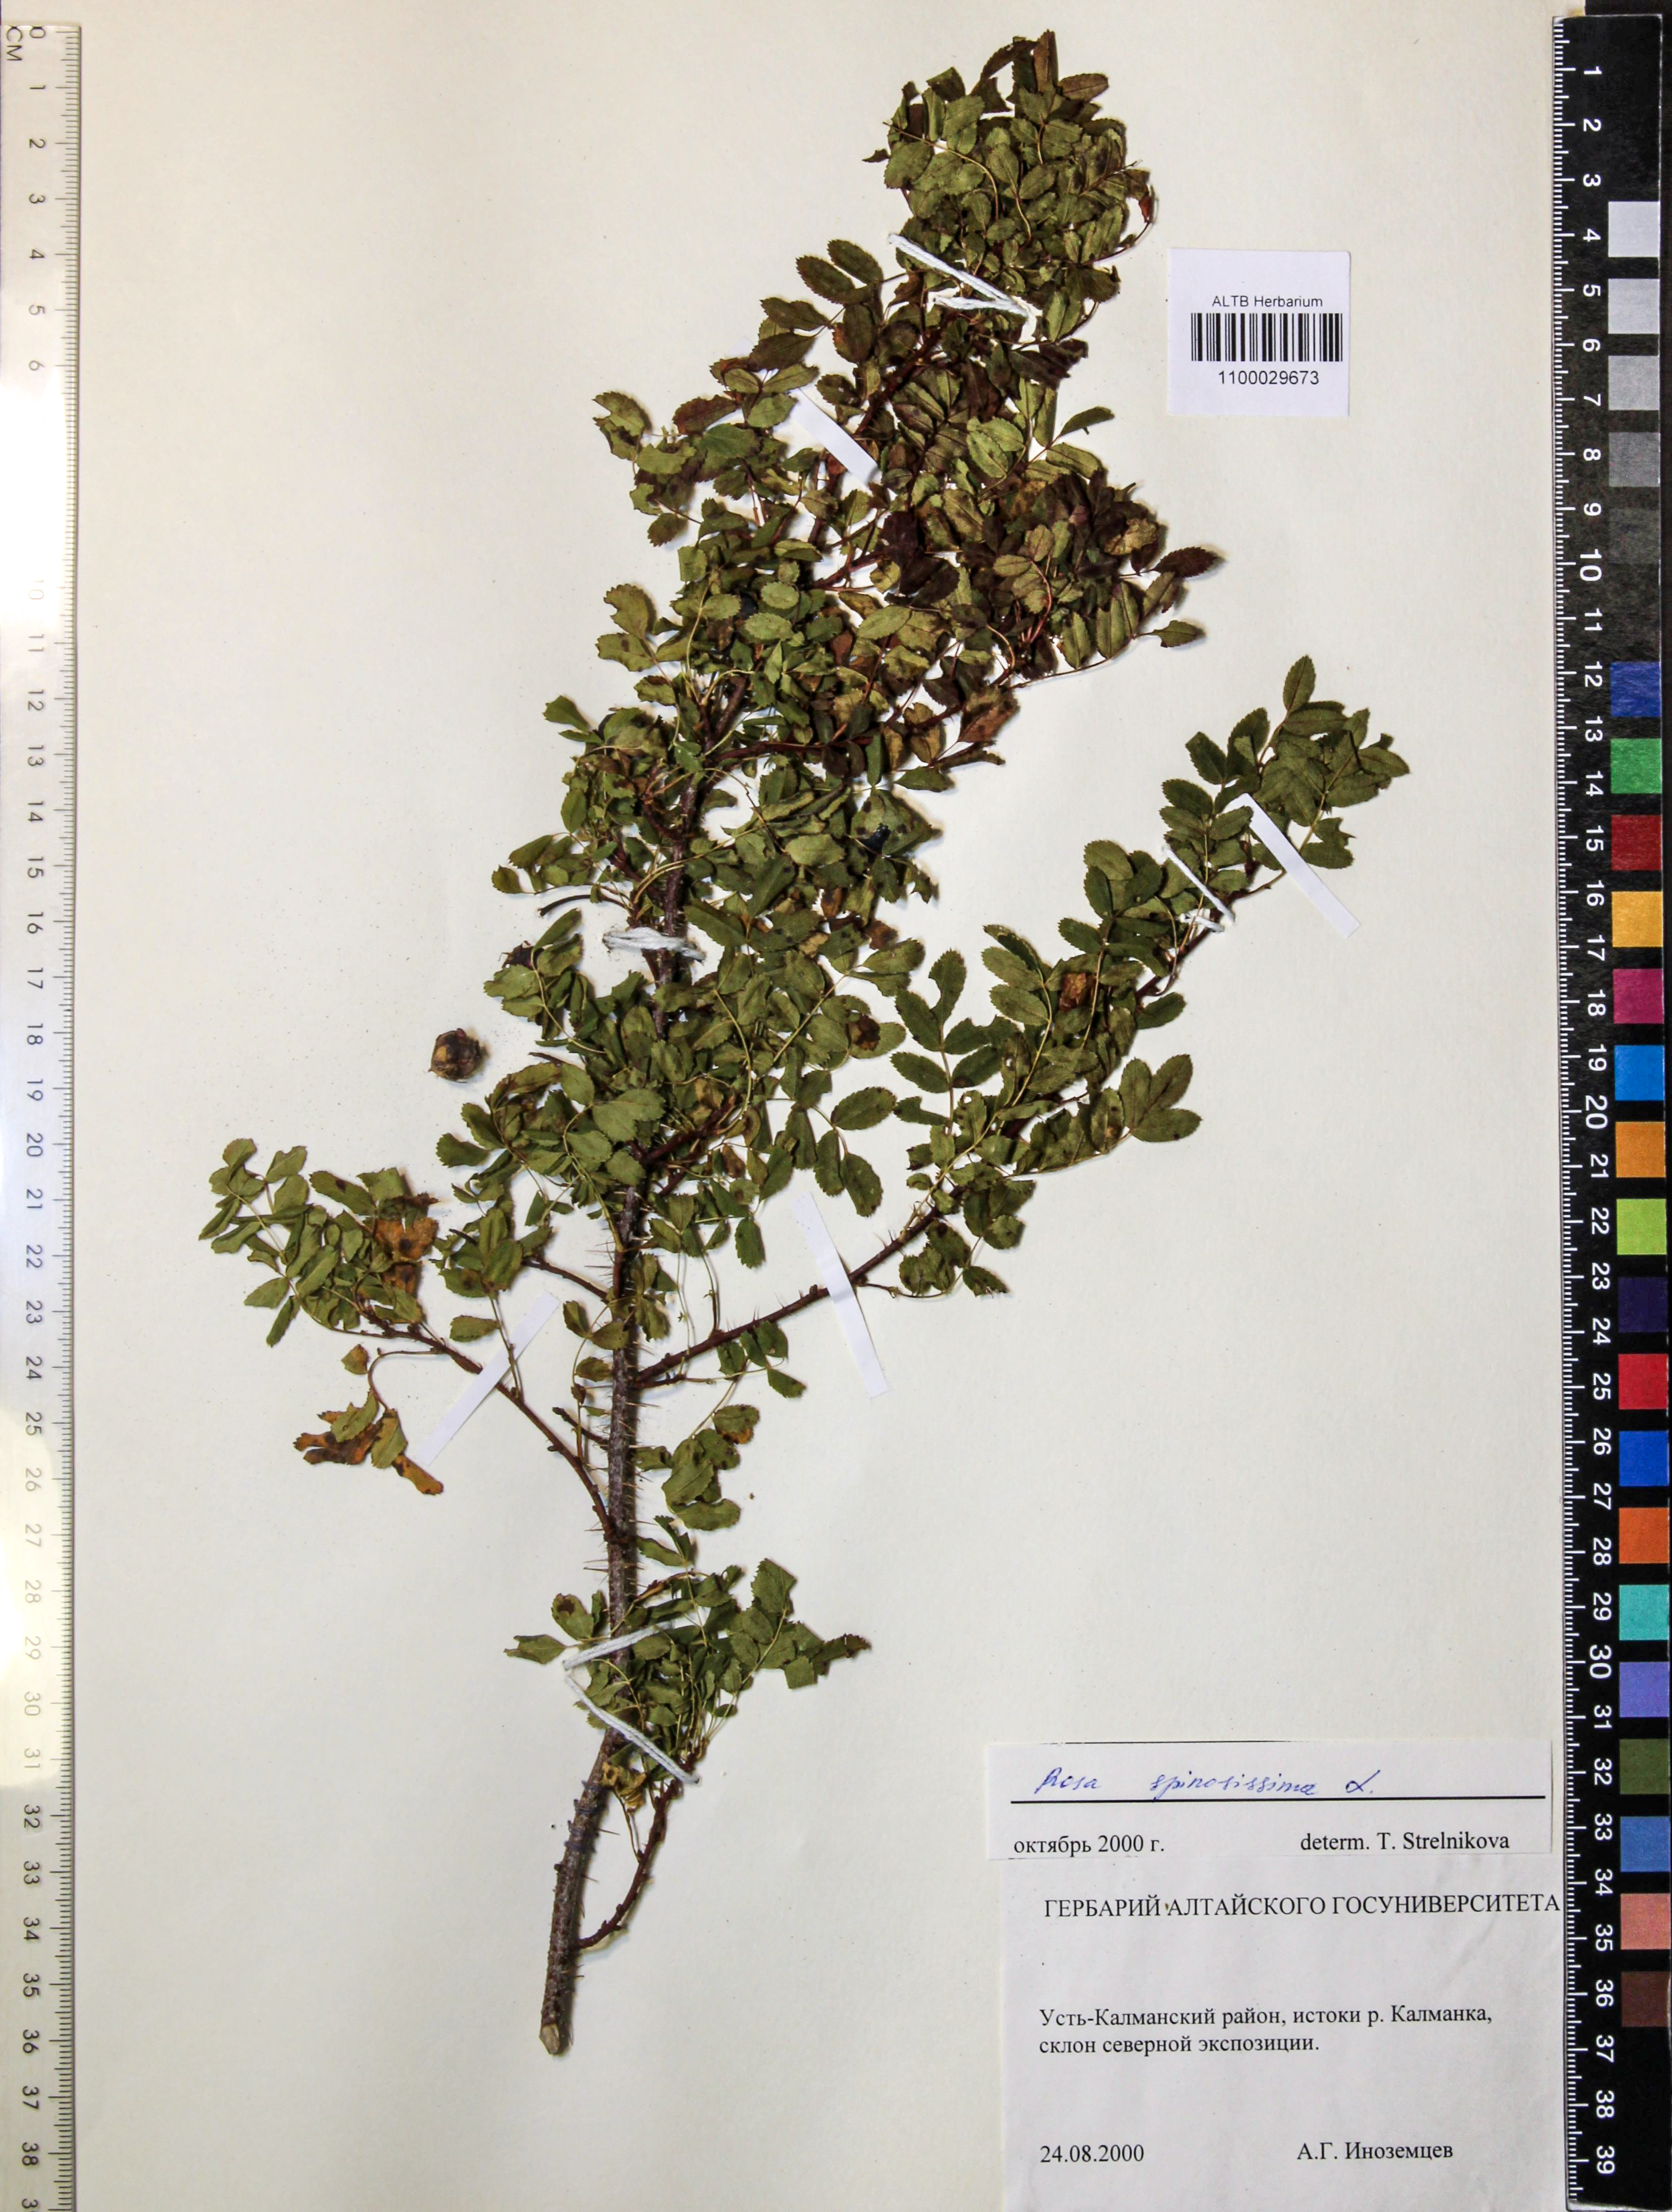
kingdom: Plantae
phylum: Tracheophyta
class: Magnoliopsida
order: Rosales
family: Rosaceae
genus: Rosa
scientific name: Rosa spinosissima
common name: Burnet rose
